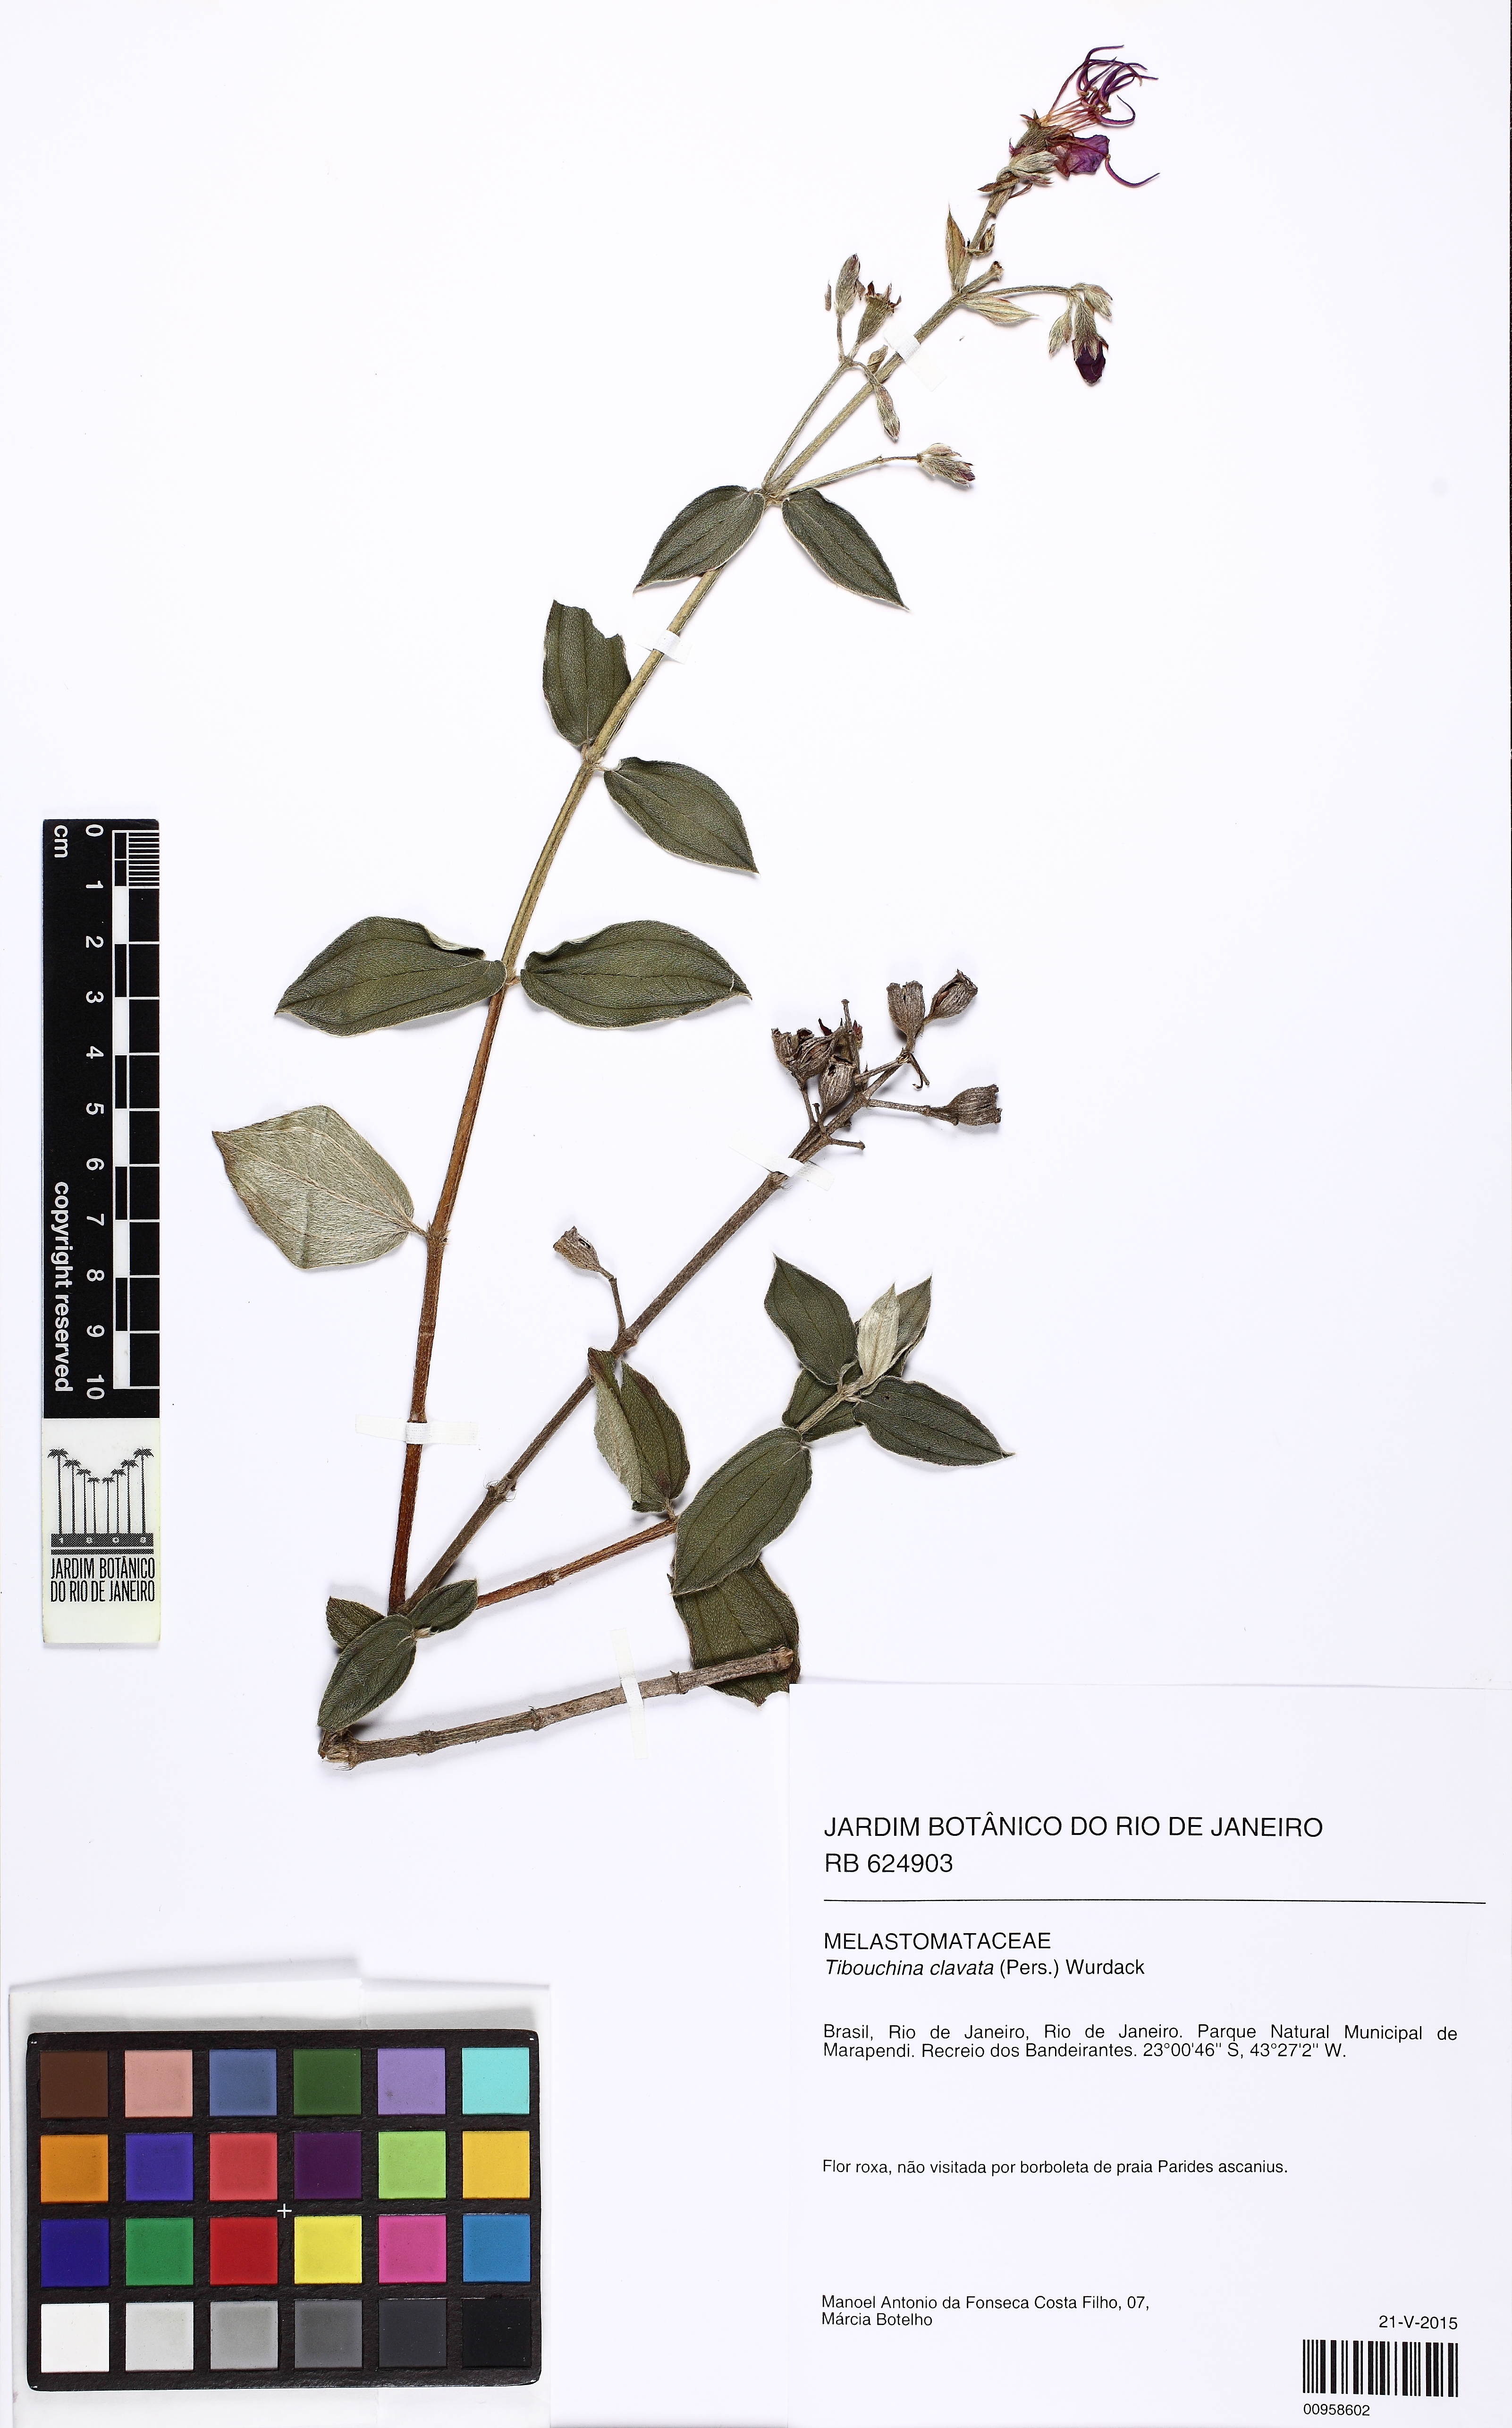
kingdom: Plantae
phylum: Tracheophyta
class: Magnoliopsida
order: Myrtales
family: Melastomataceae
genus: Pleroma
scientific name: Pleroma clavatum
